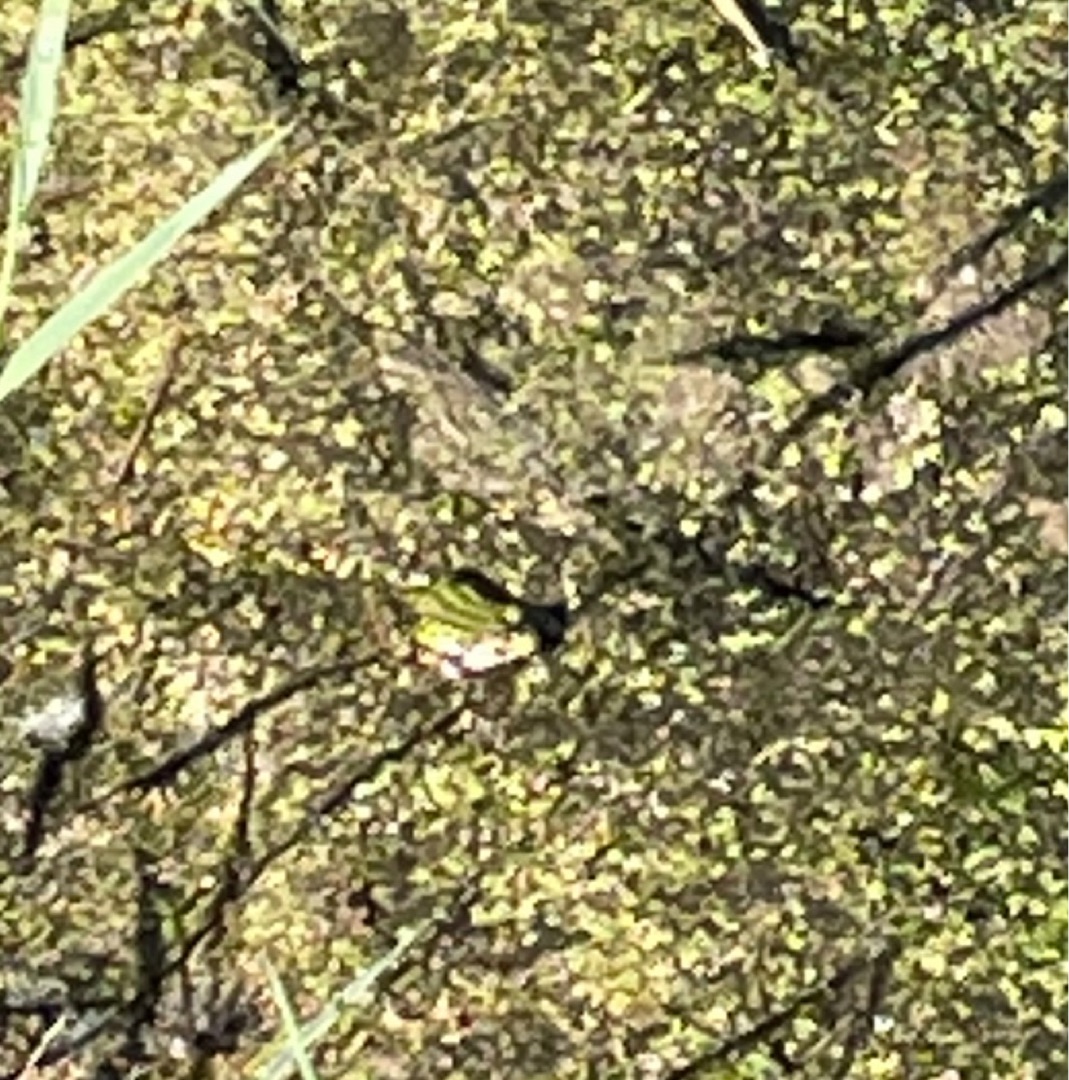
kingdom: Animalia
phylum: Chordata
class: Amphibia
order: Anura
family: Ranidae
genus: Pelophylax
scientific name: Pelophylax lessonae
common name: Grøn frø
